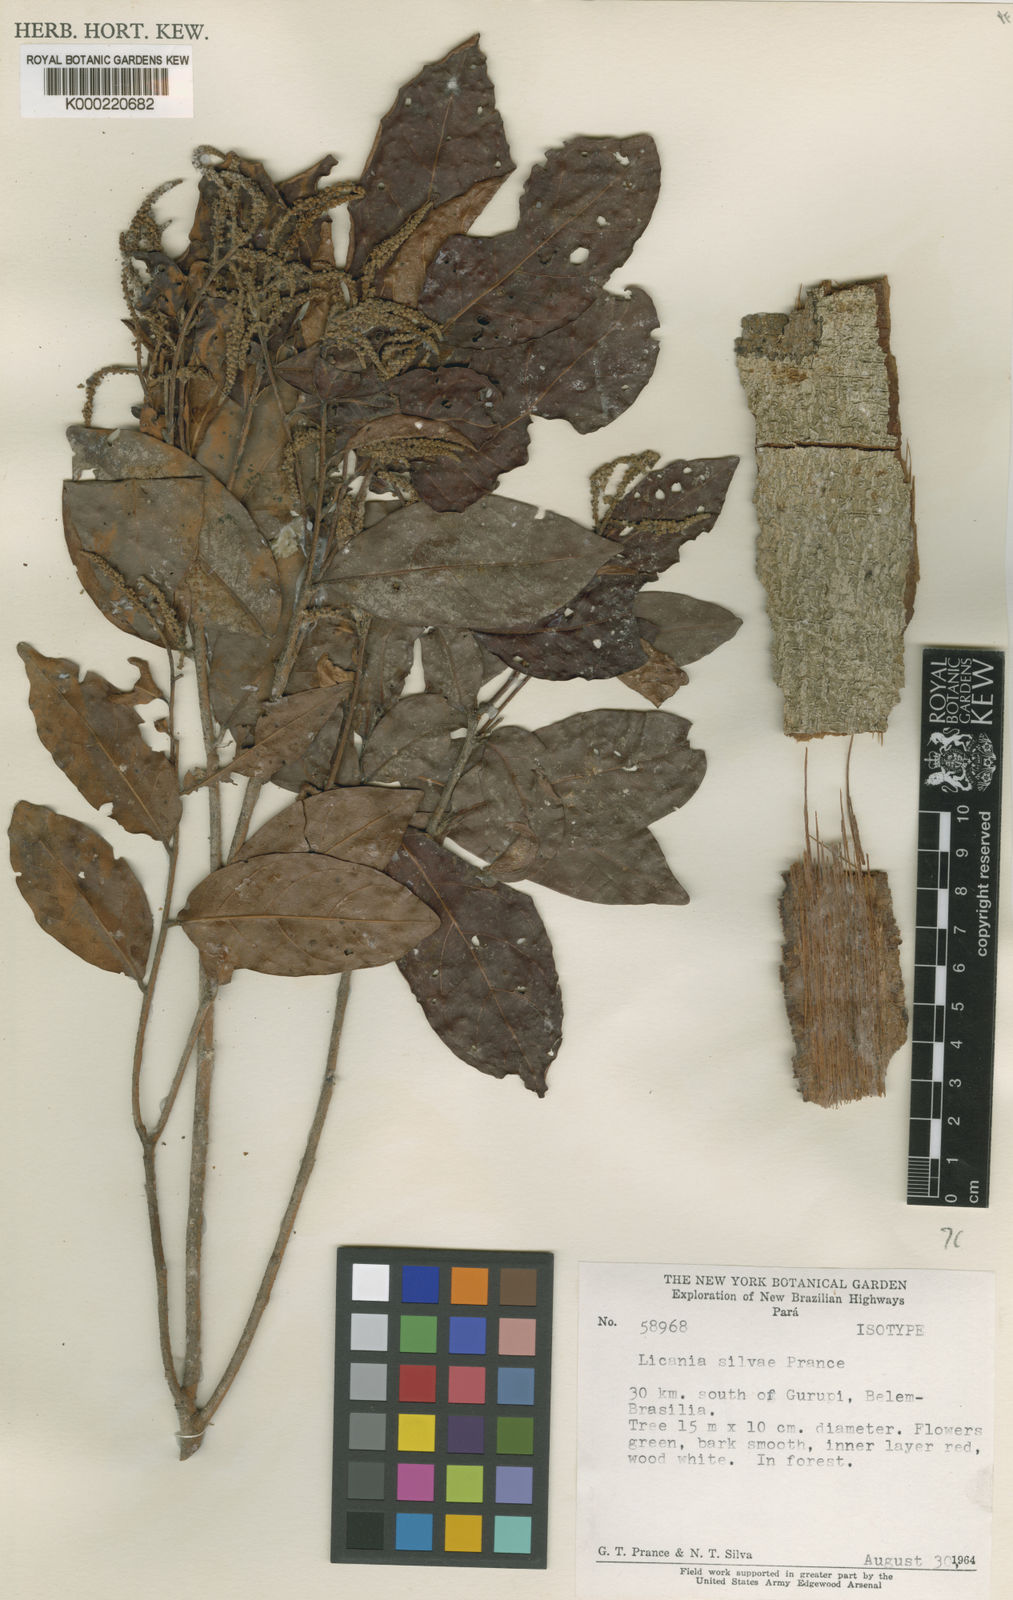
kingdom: Plantae
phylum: Tracheophyta
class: Magnoliopsida
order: Malpighiales
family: Chrysobalanaceae
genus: Licania
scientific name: Licania silvae
